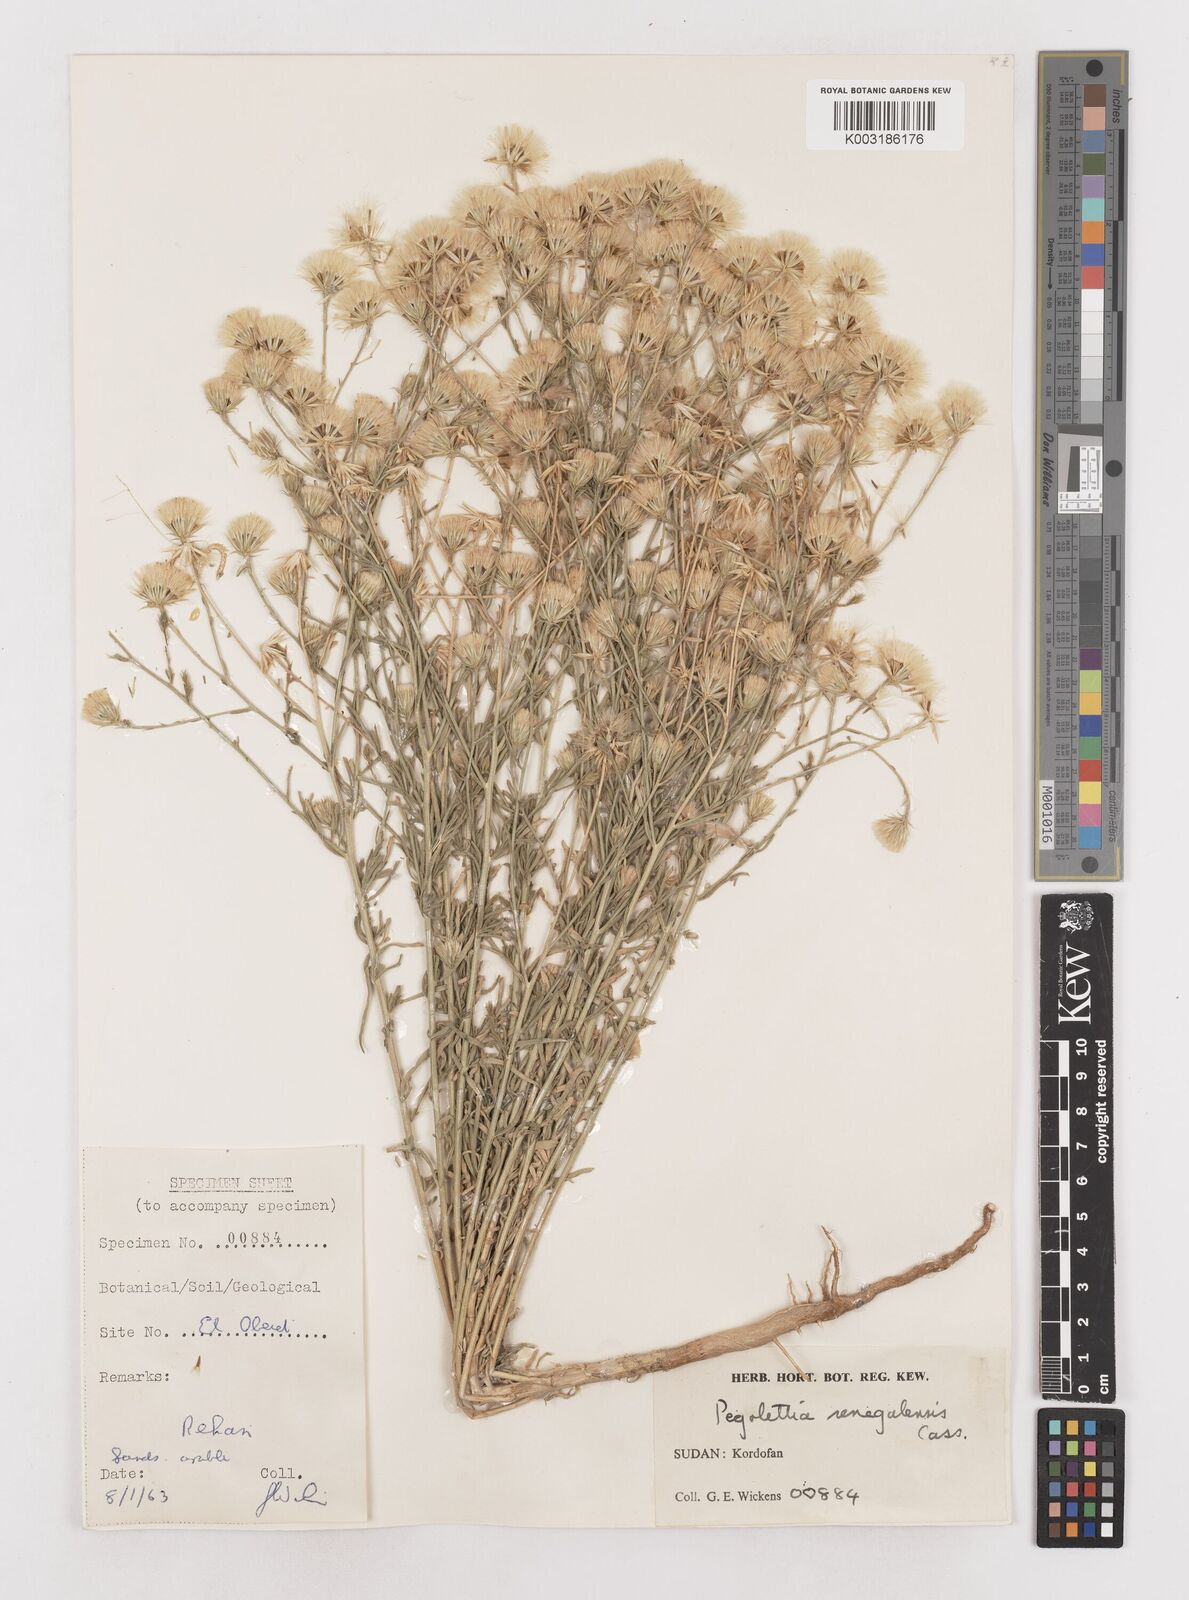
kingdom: Plantae
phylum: Tracheophyta
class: Magnoliopsida
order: Asterales
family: Asteraceae
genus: Pegolettia
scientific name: Pegolettia senegalensis
